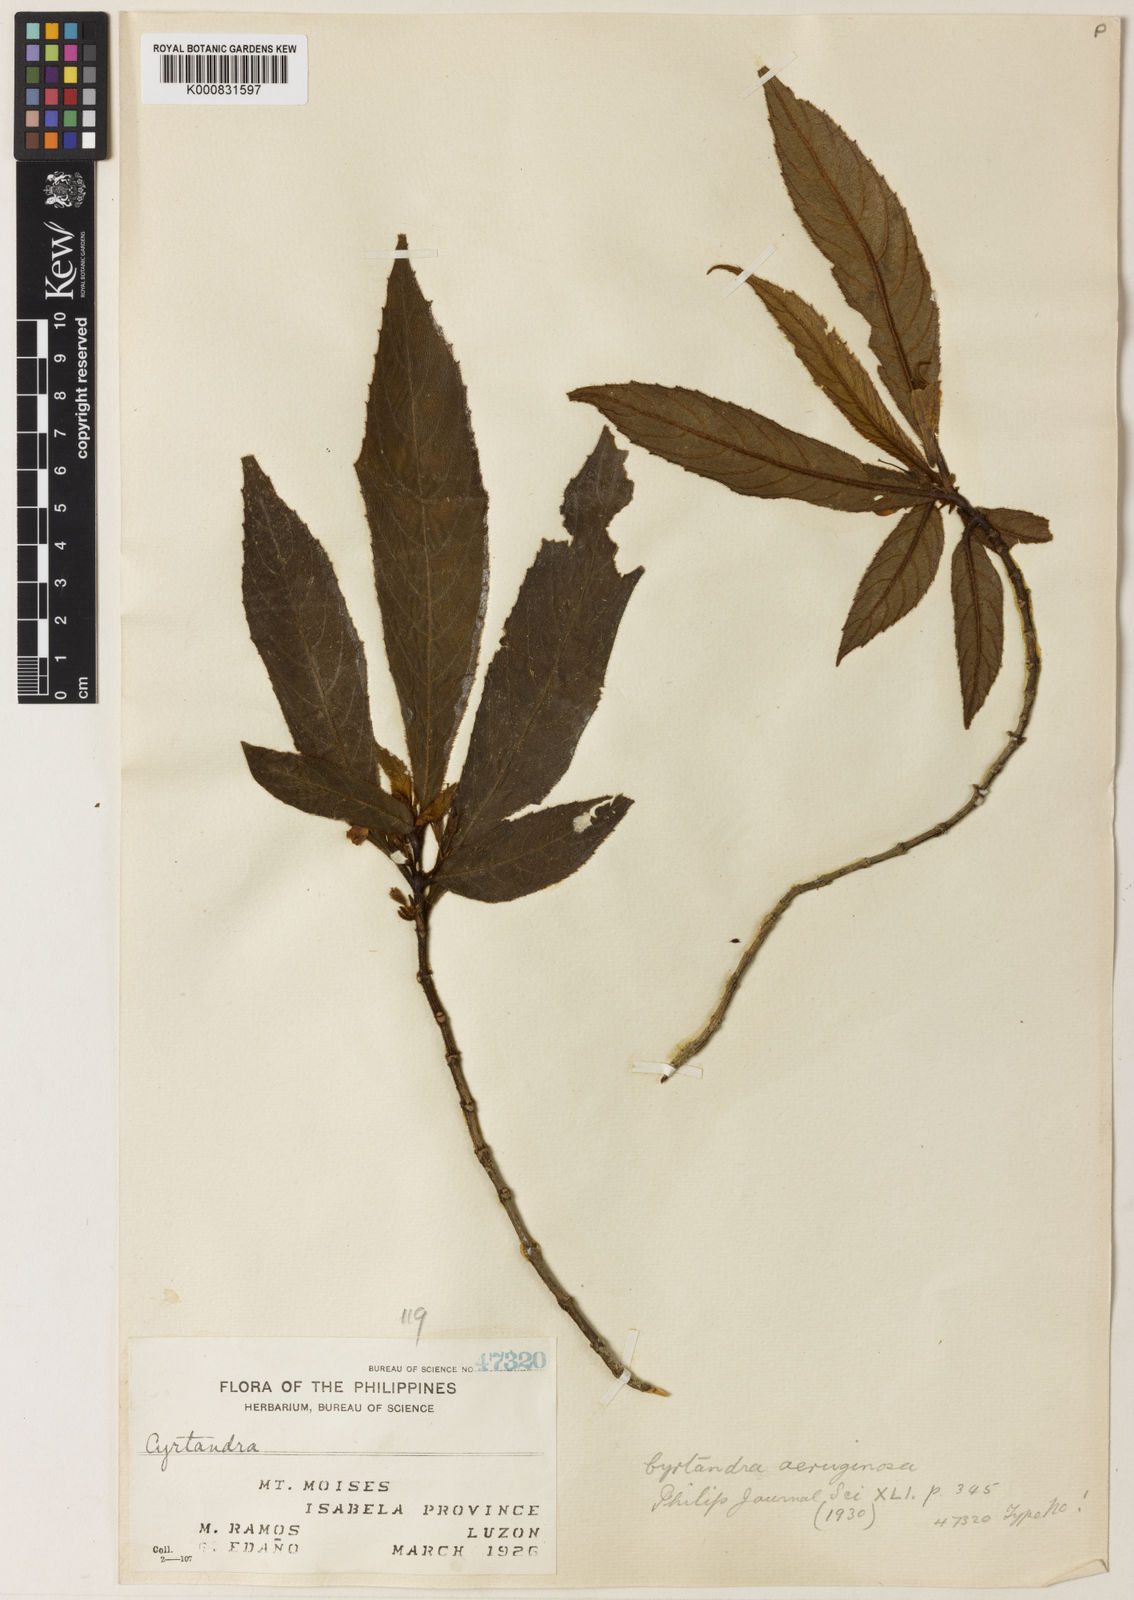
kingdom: Plantae
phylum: Tracheophyta
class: Magnoliopsida
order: Lamiales
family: Gesneriaceae
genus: Cyrtandra
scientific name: Cyrtandra aeruginosa
